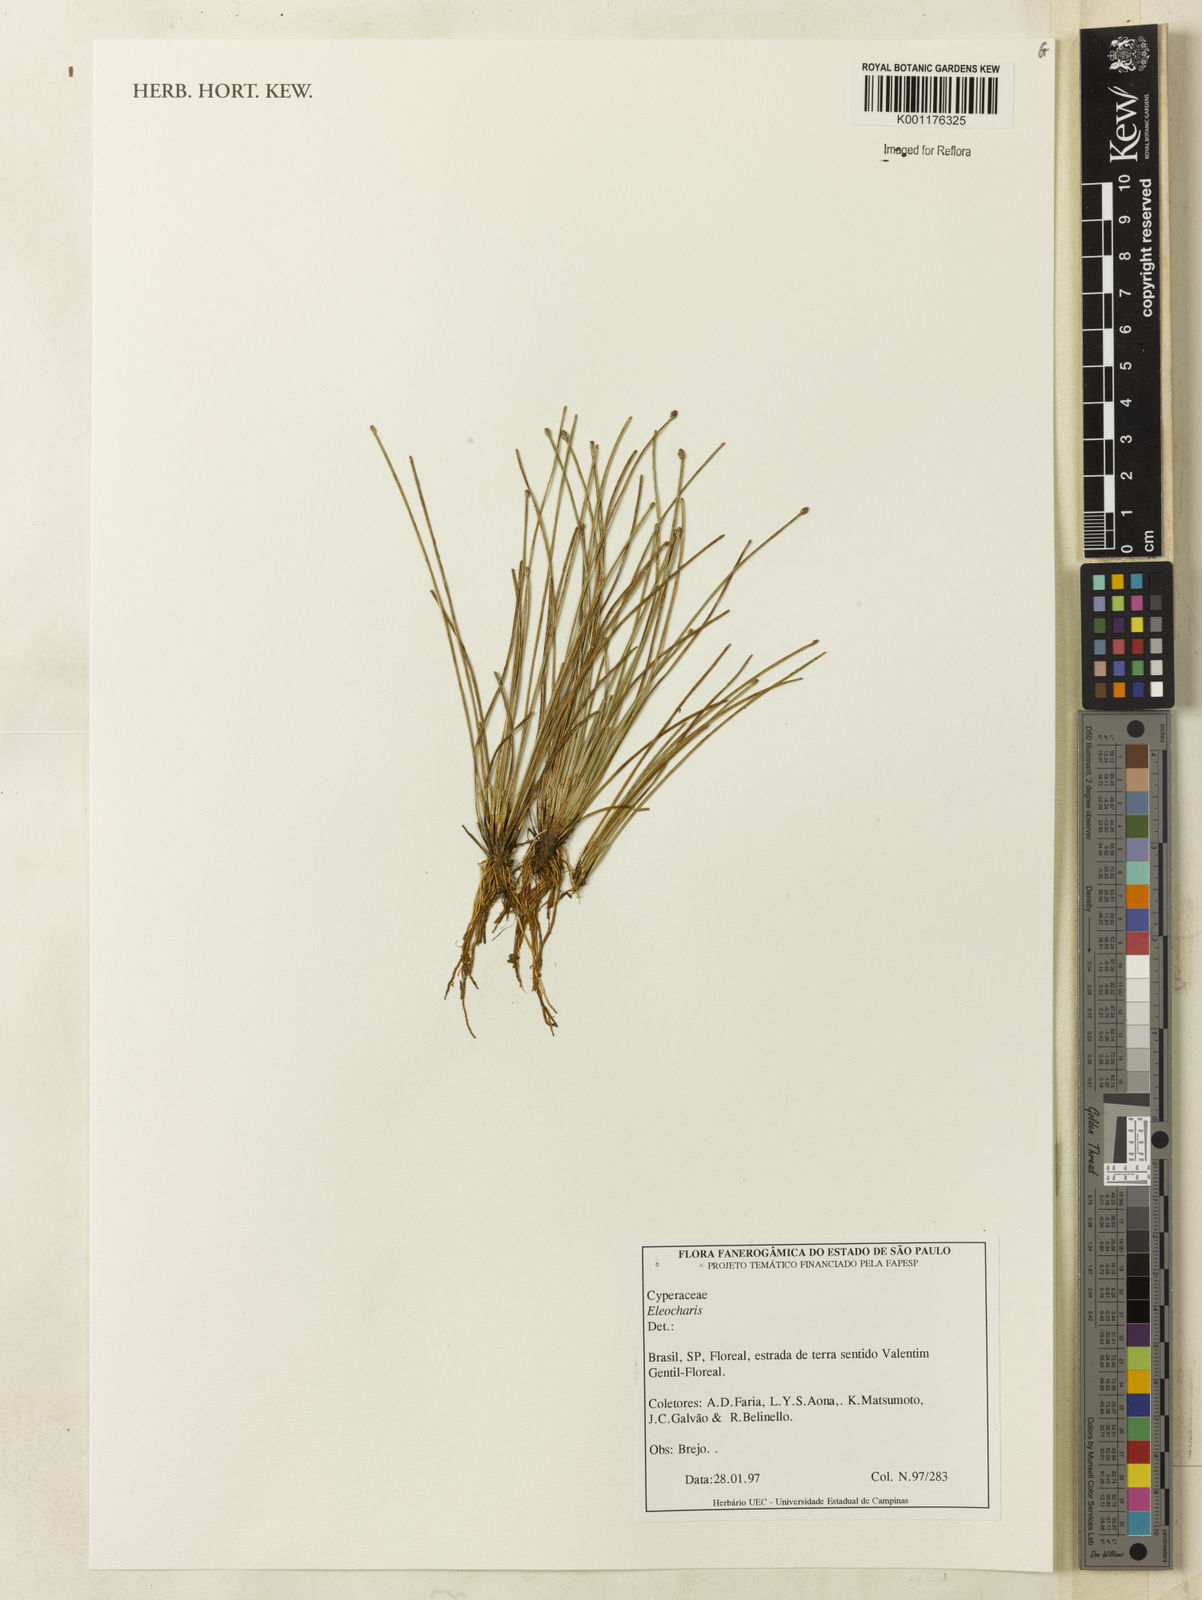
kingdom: Plantae
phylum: Tracheophyta
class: Liliopsida
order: Poales
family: Cyperaceae
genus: Eleocharis
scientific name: Eleocharis
